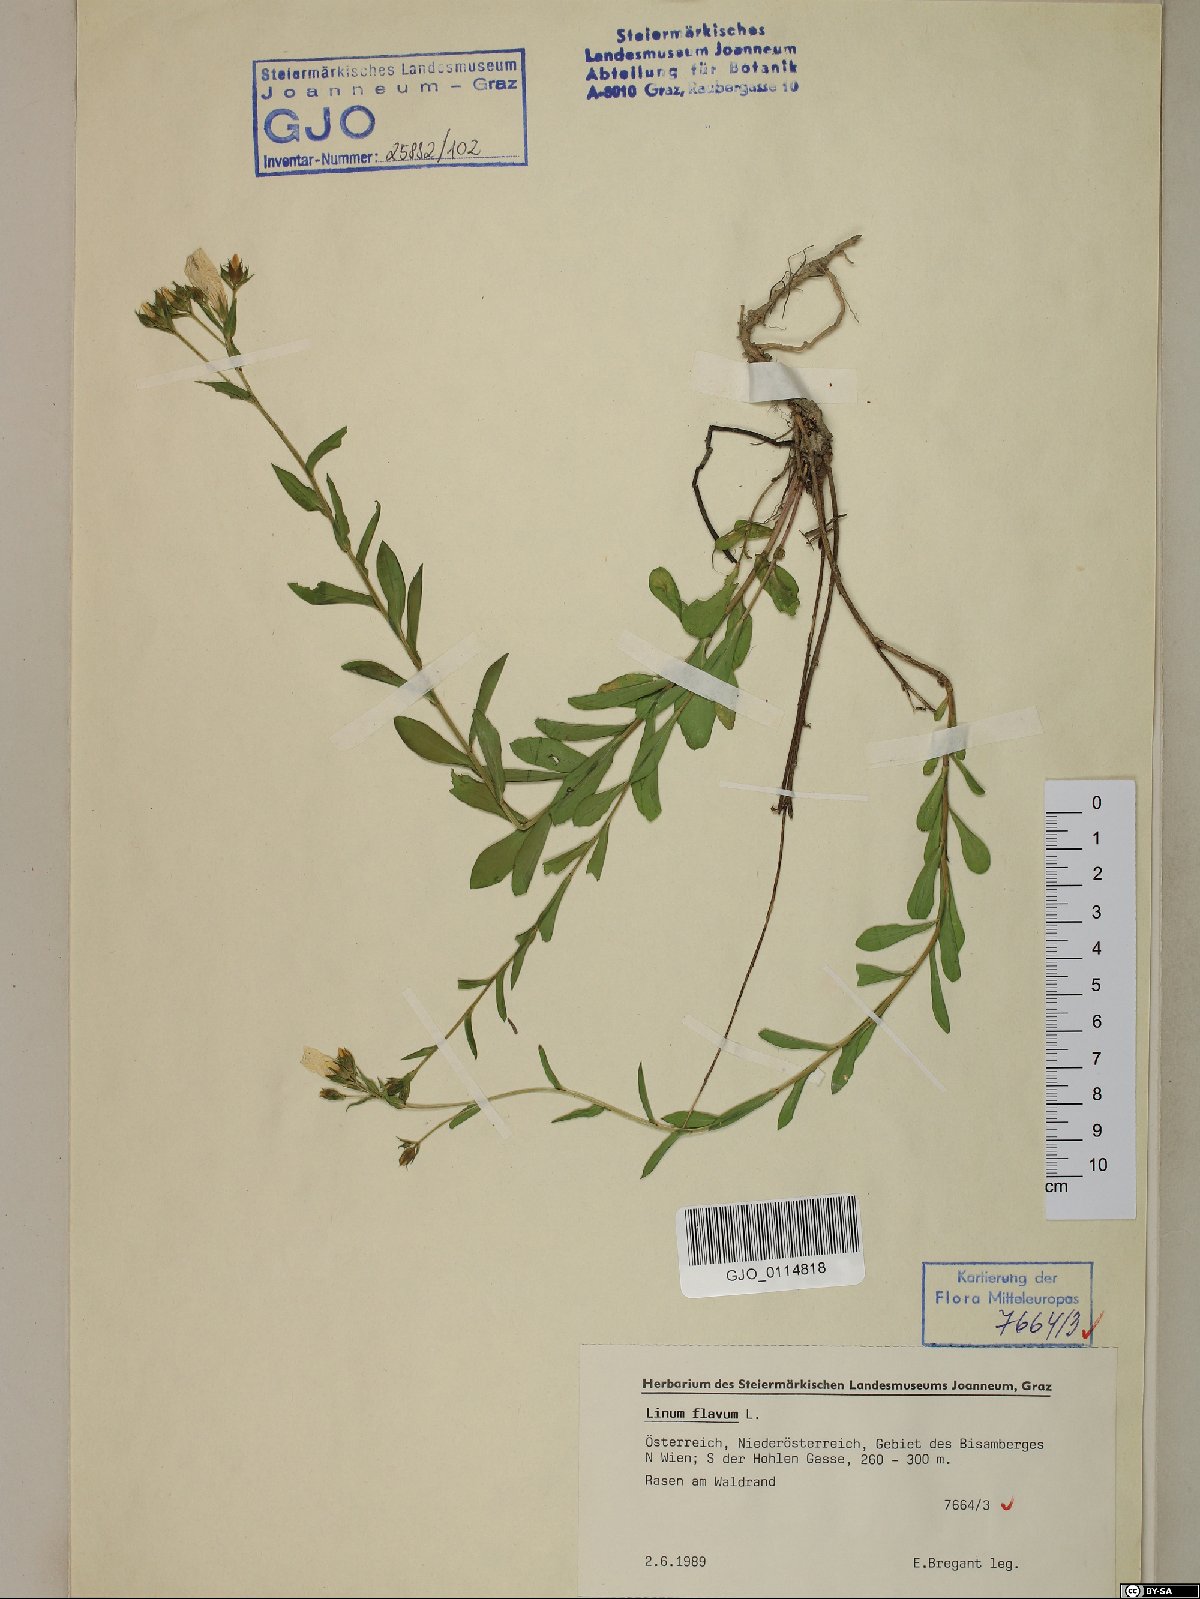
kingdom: Plantae
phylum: Tracheophyta
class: Magnoliopsida
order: Malpighiales
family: Linaceae
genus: Linum
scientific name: Linum flavum
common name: Yellow flax
